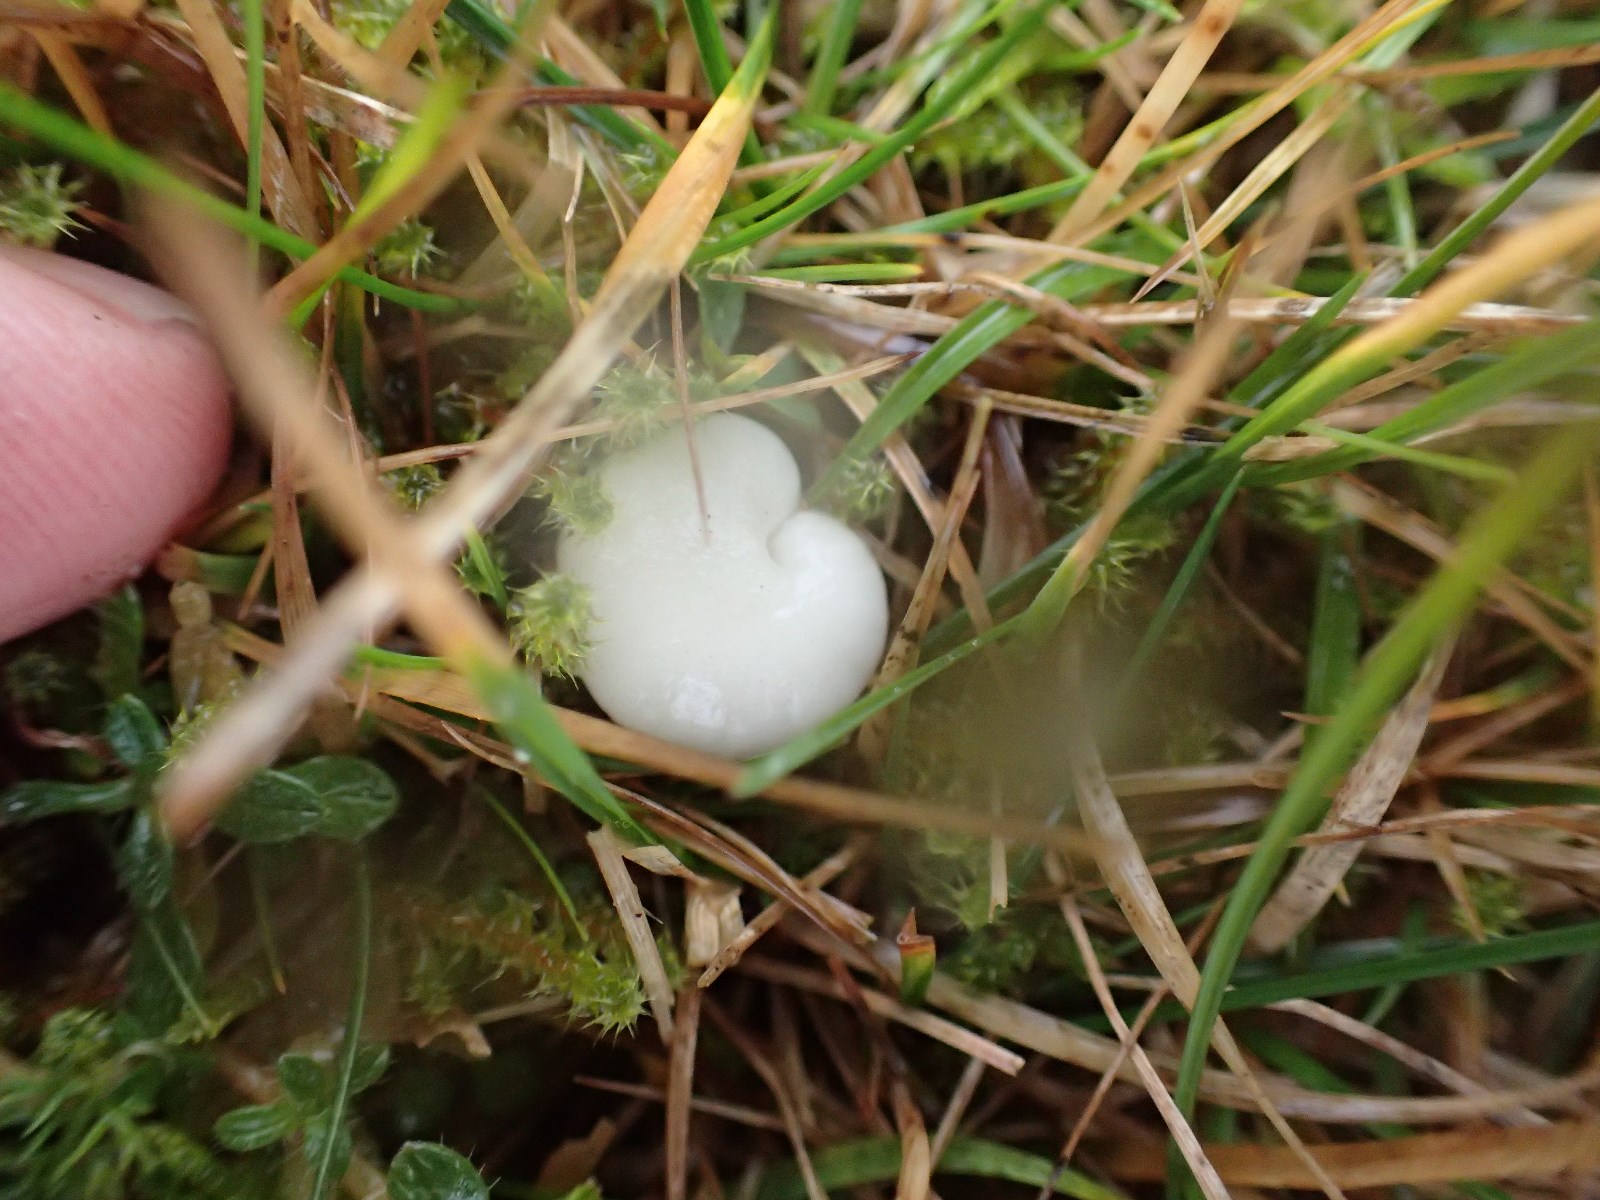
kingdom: Fungi
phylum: Basidiomycota
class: Agaricomycetes
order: Agaricales
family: Hygrophoraceae
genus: Cuphophyllus
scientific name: Cuphophyllus virgineus
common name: snehvid vokshat
